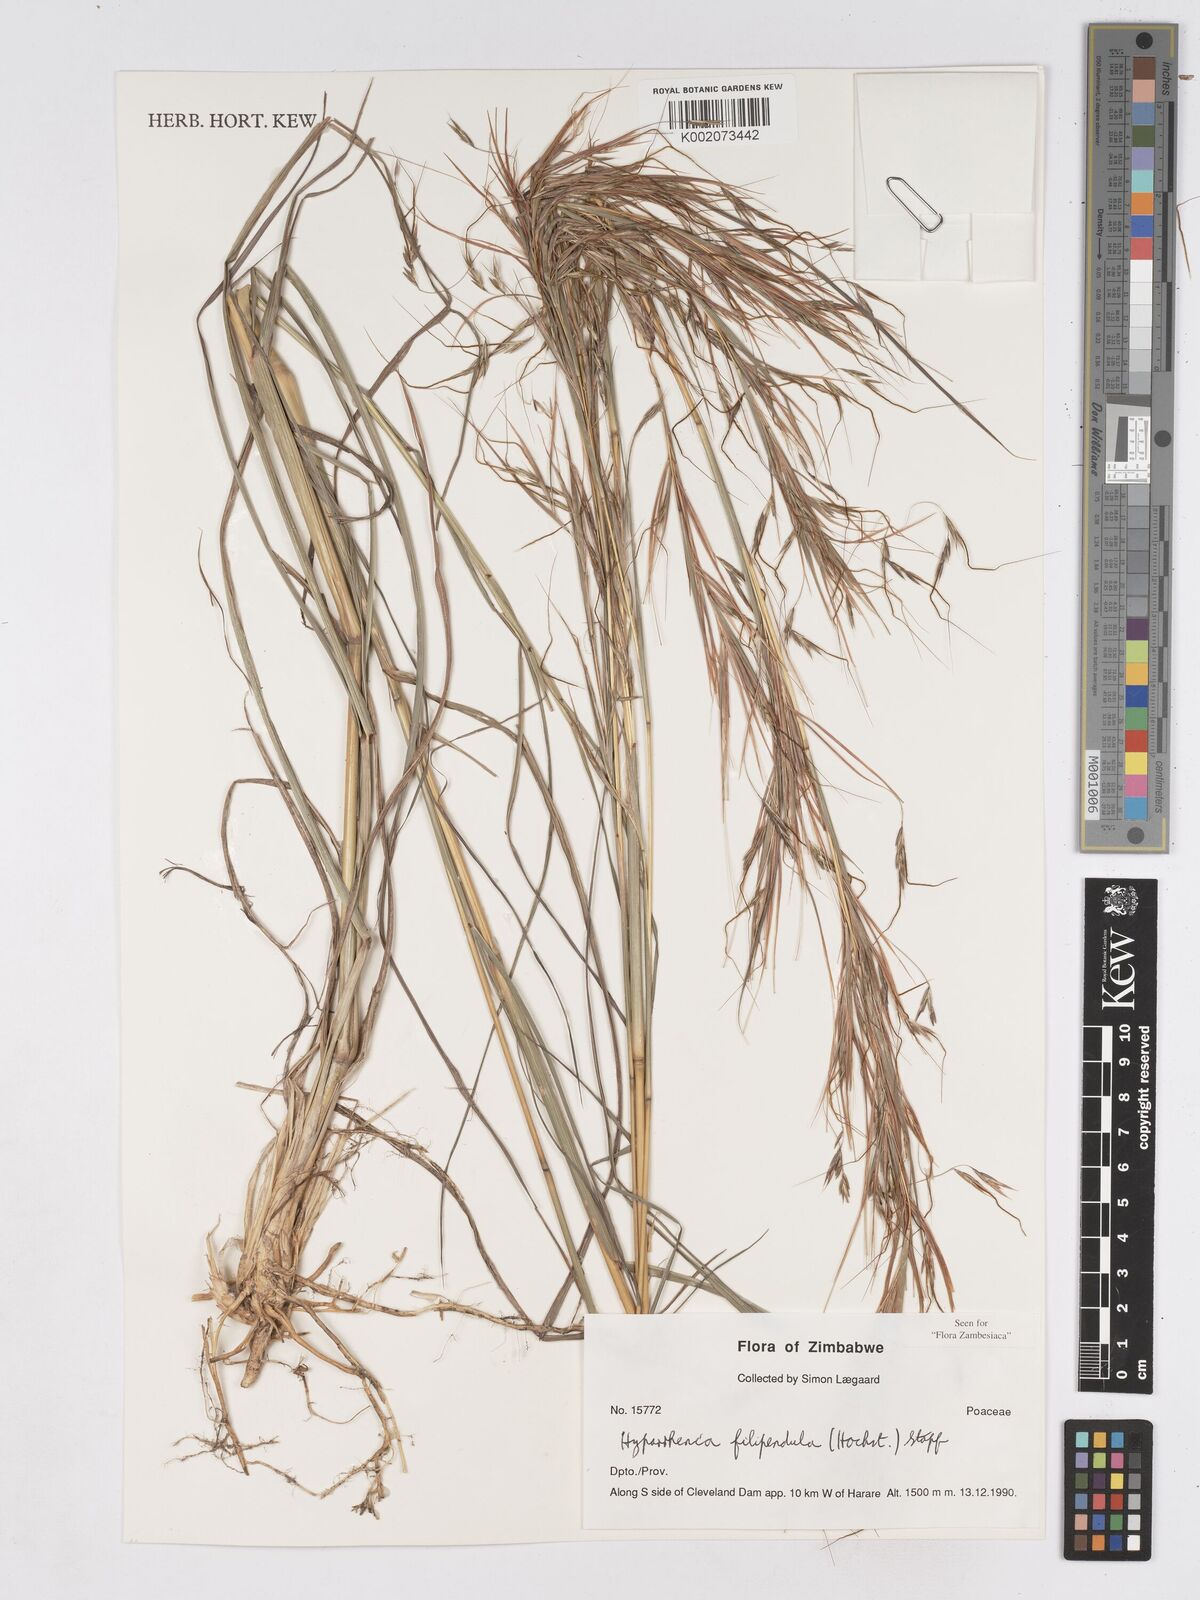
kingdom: Plantae
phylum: Tracheophyta
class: Liliopsida
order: Poales
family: Poaceae
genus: Hyparrhenia
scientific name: Hyparrhenia filipendula
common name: Tambookie grass
